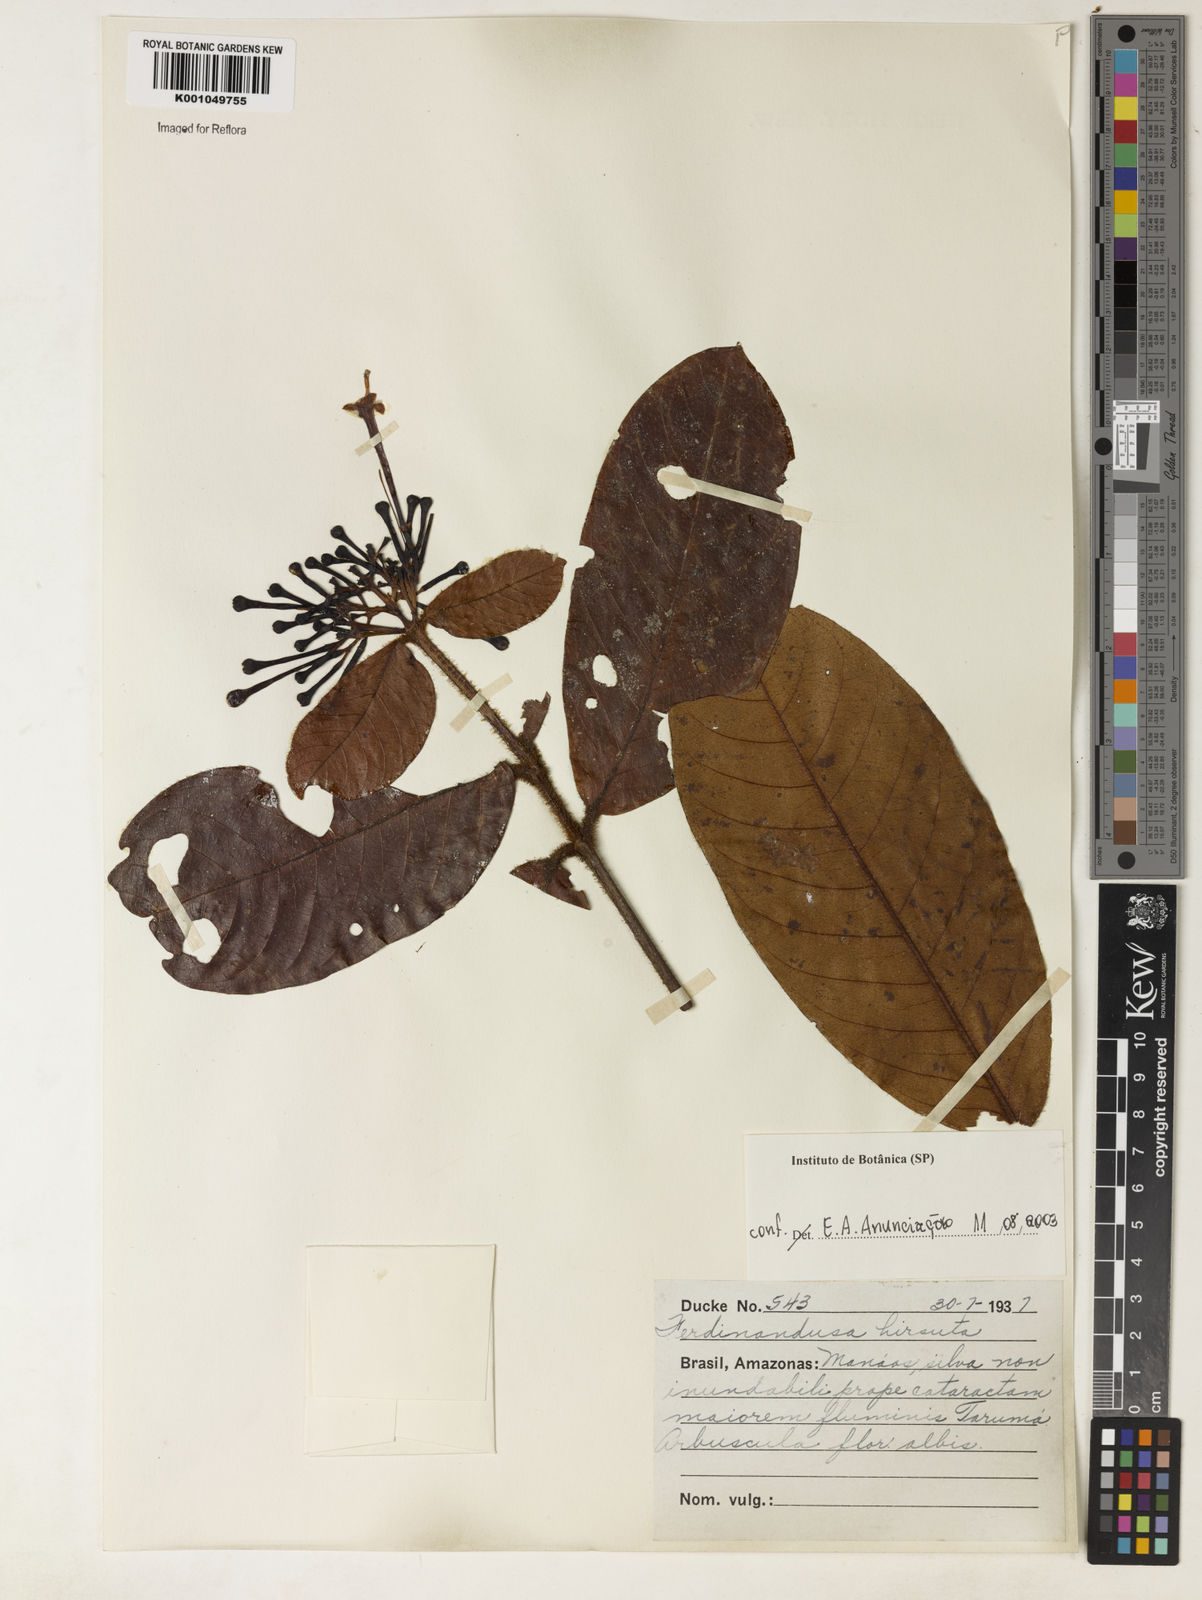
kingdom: Plantae
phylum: Tracheophyta
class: Magnoliopsida
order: Gentianales
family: Rubiaceae
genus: Ferdinandusa
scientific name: Ferdinandusa hirsuta
